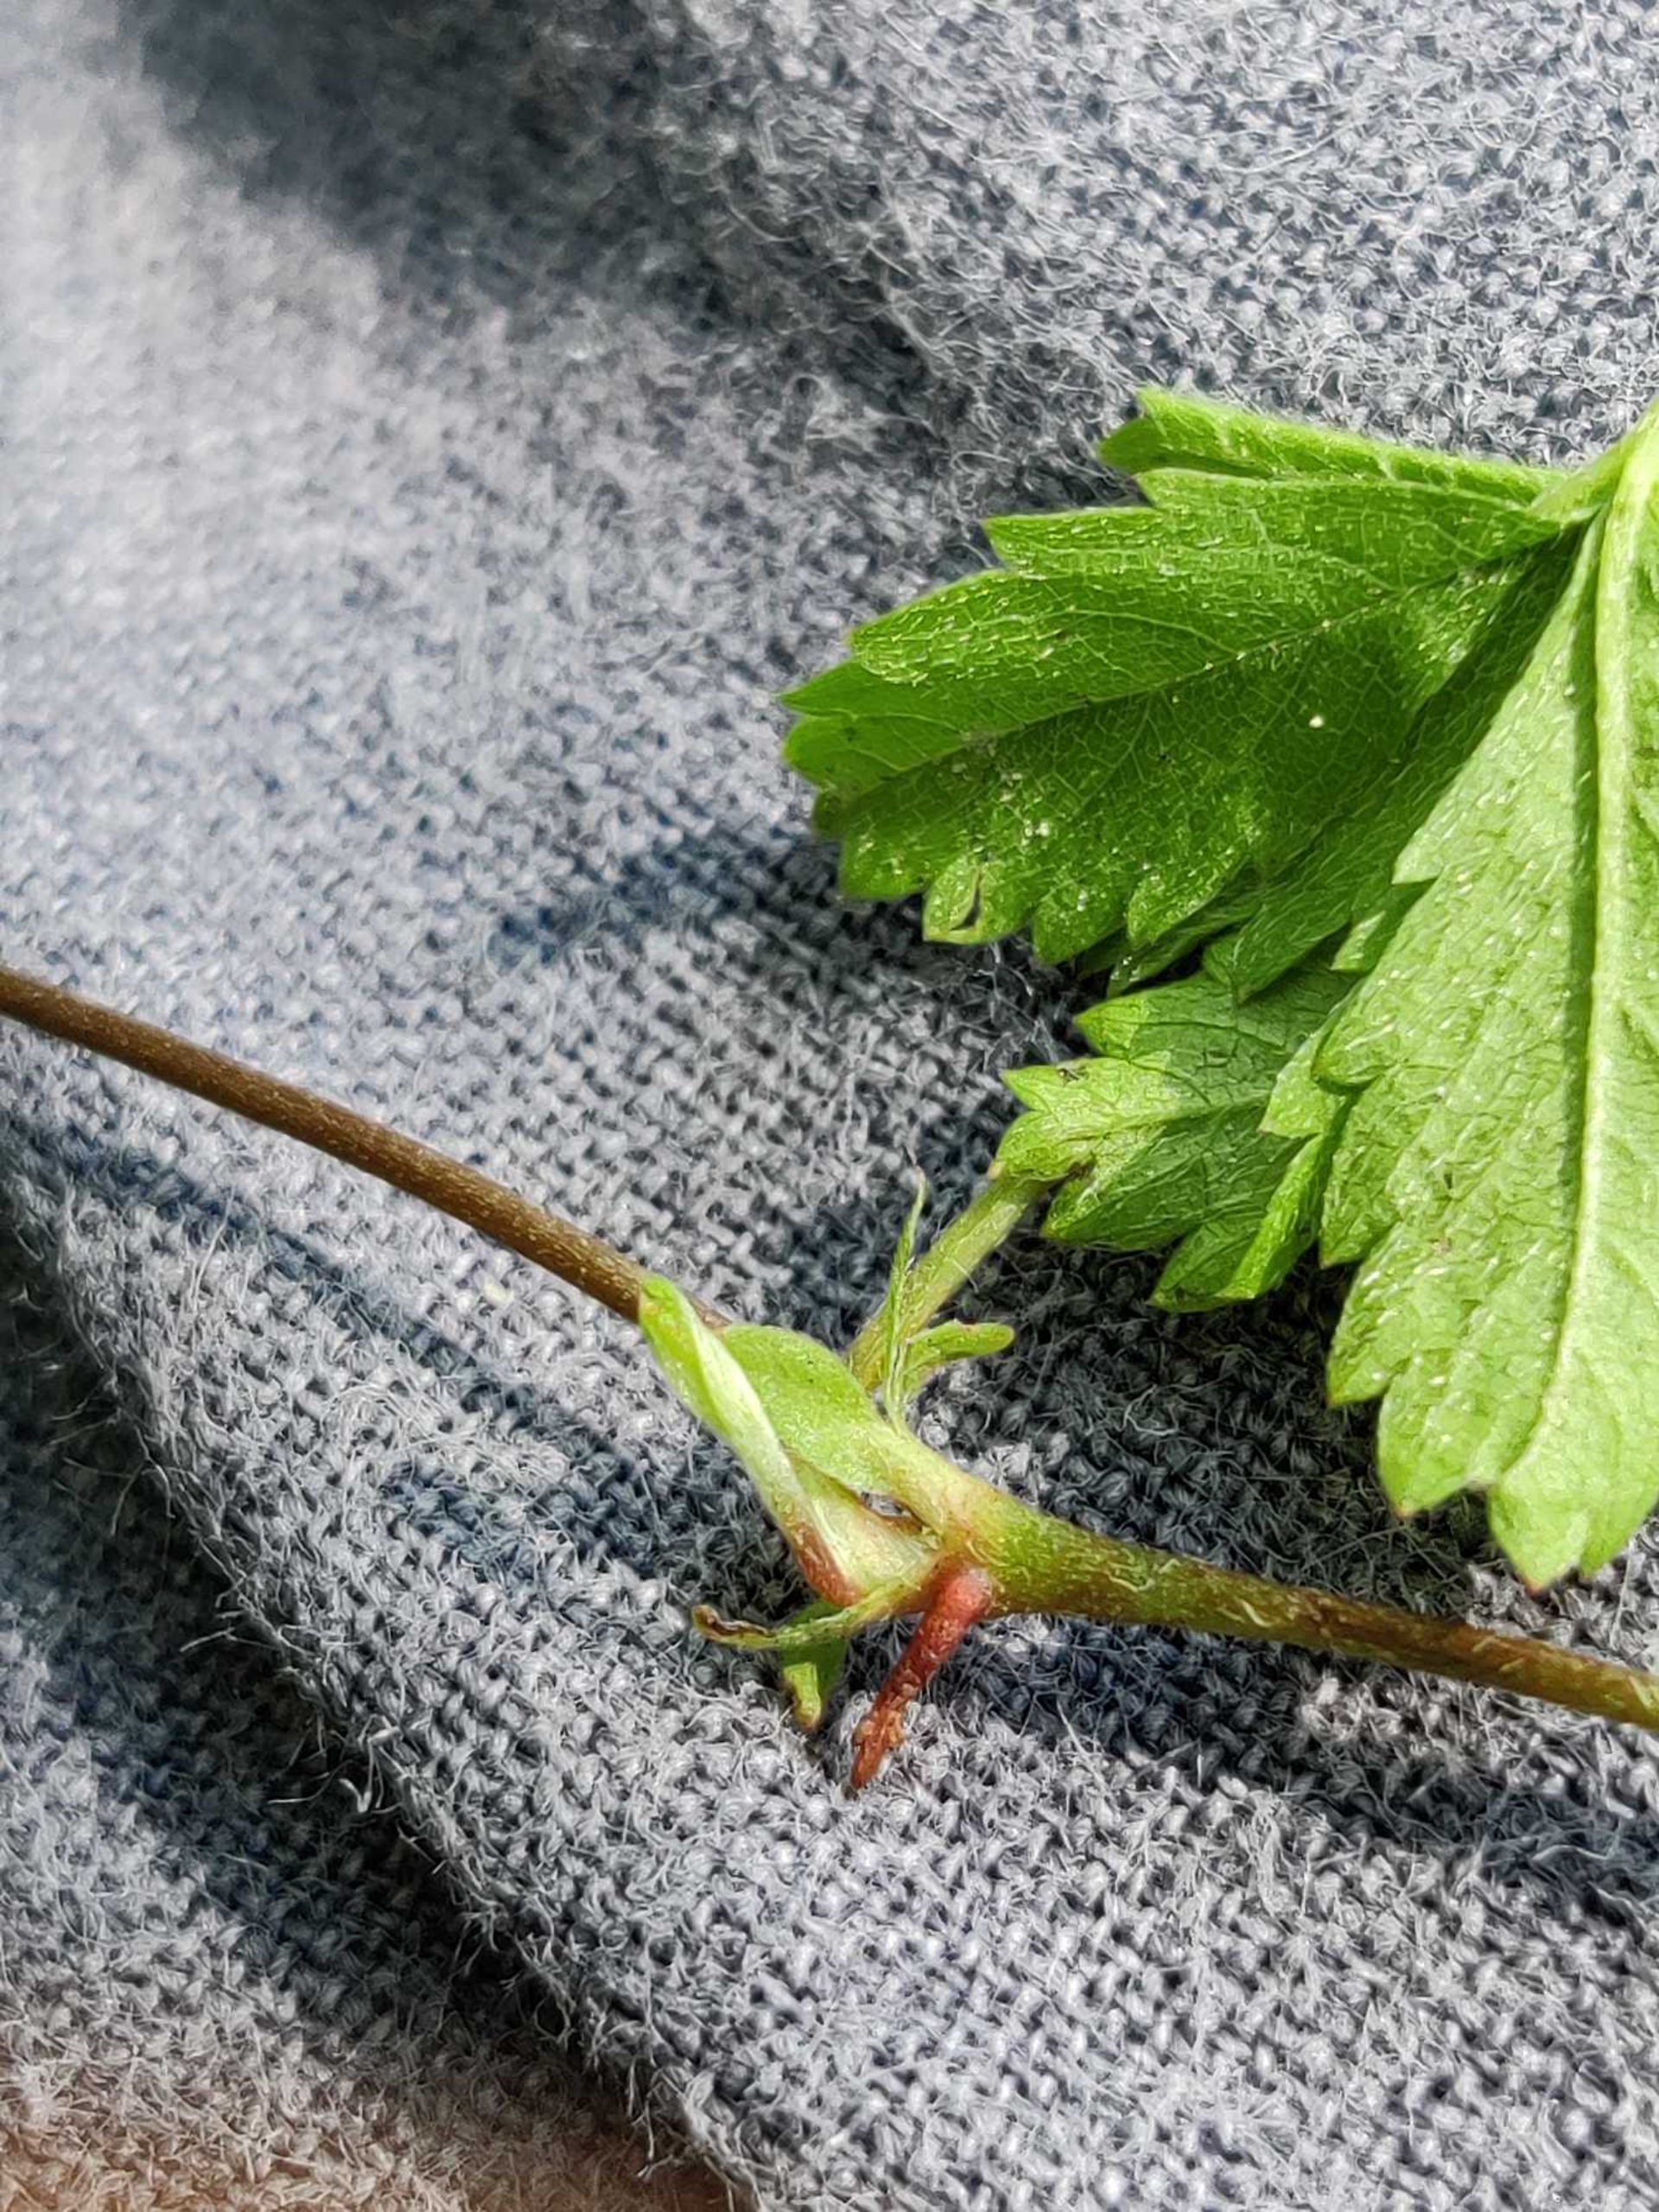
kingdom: Plantae
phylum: Tracheophyta
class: Magnoliopsida
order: Rosales
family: Rosaceae
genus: Potentilla
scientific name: Potentilla reptans
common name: Krybende potentil
